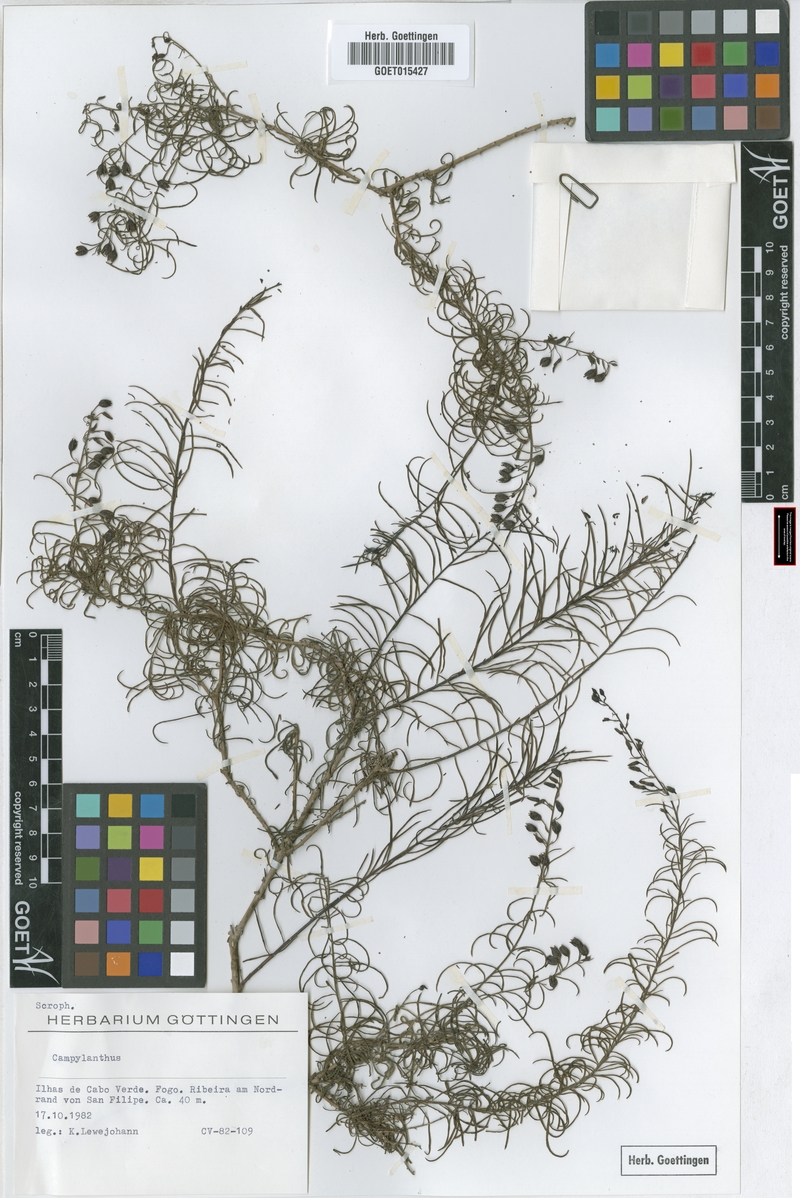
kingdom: Plantae
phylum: Tracheophyta
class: Magnoliopsida
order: Lamiales
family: Plantaginaceae
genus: Campylanthus
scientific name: Campylanthus
